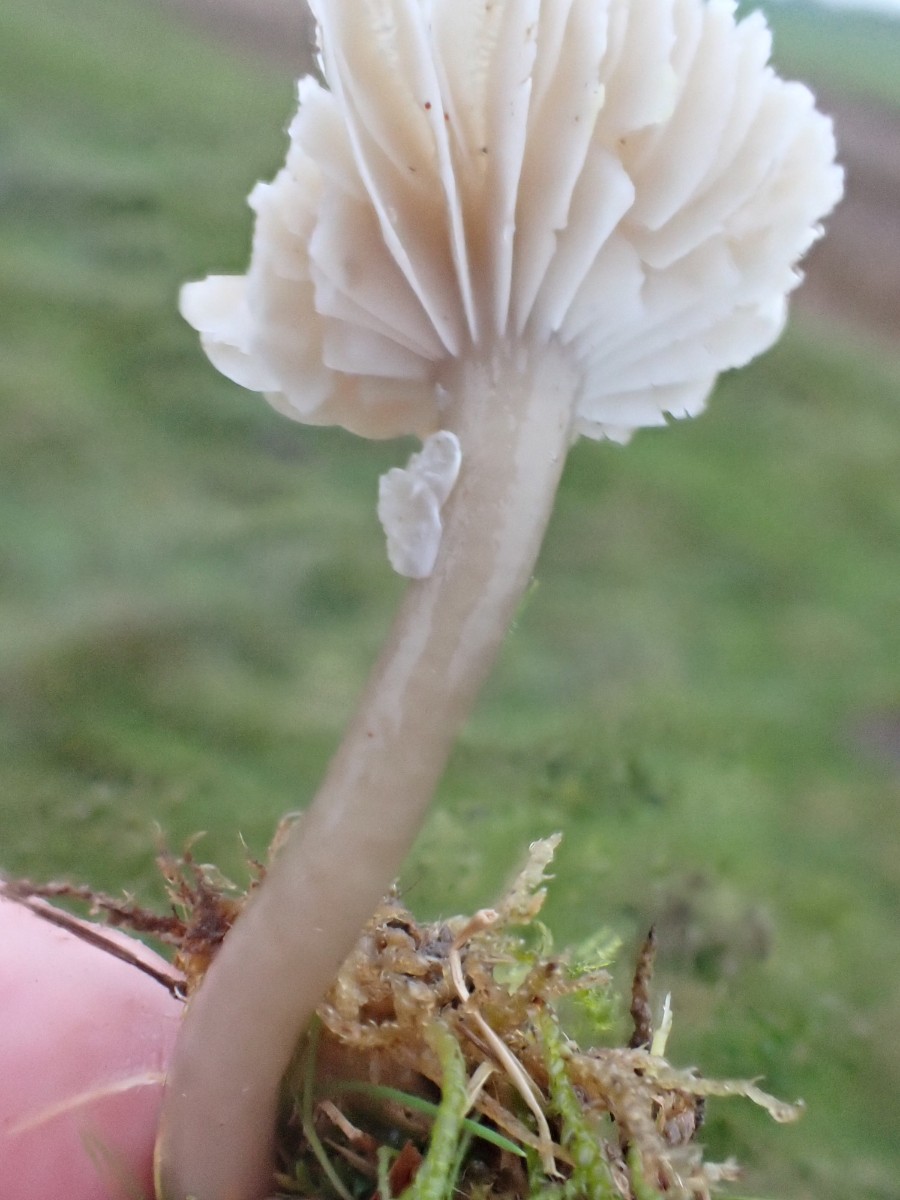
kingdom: Fungi
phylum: Basidiomycota
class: Agaricomycetes
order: Agaricales
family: Hygrophoraceae
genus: Gliophorus
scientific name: Gliophorus irrigatus
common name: slimet vokshat
